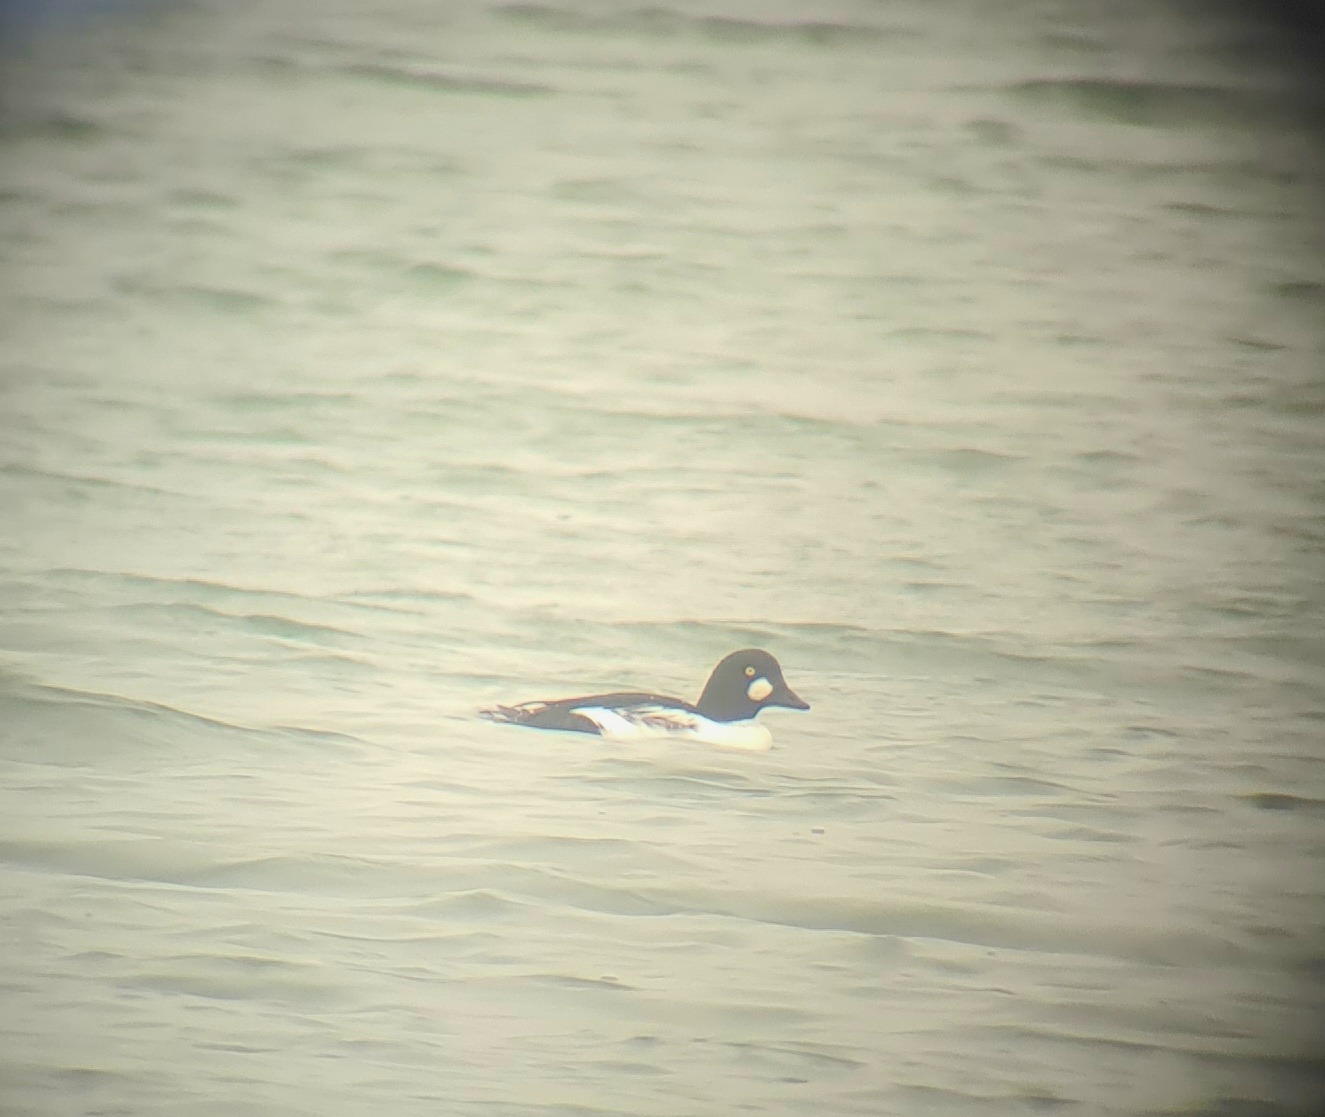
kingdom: Animalia
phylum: Chordata
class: Aves
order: Anseriformes
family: Anatidae
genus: Bucephala
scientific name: Bucephala clangula
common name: Hvinand
